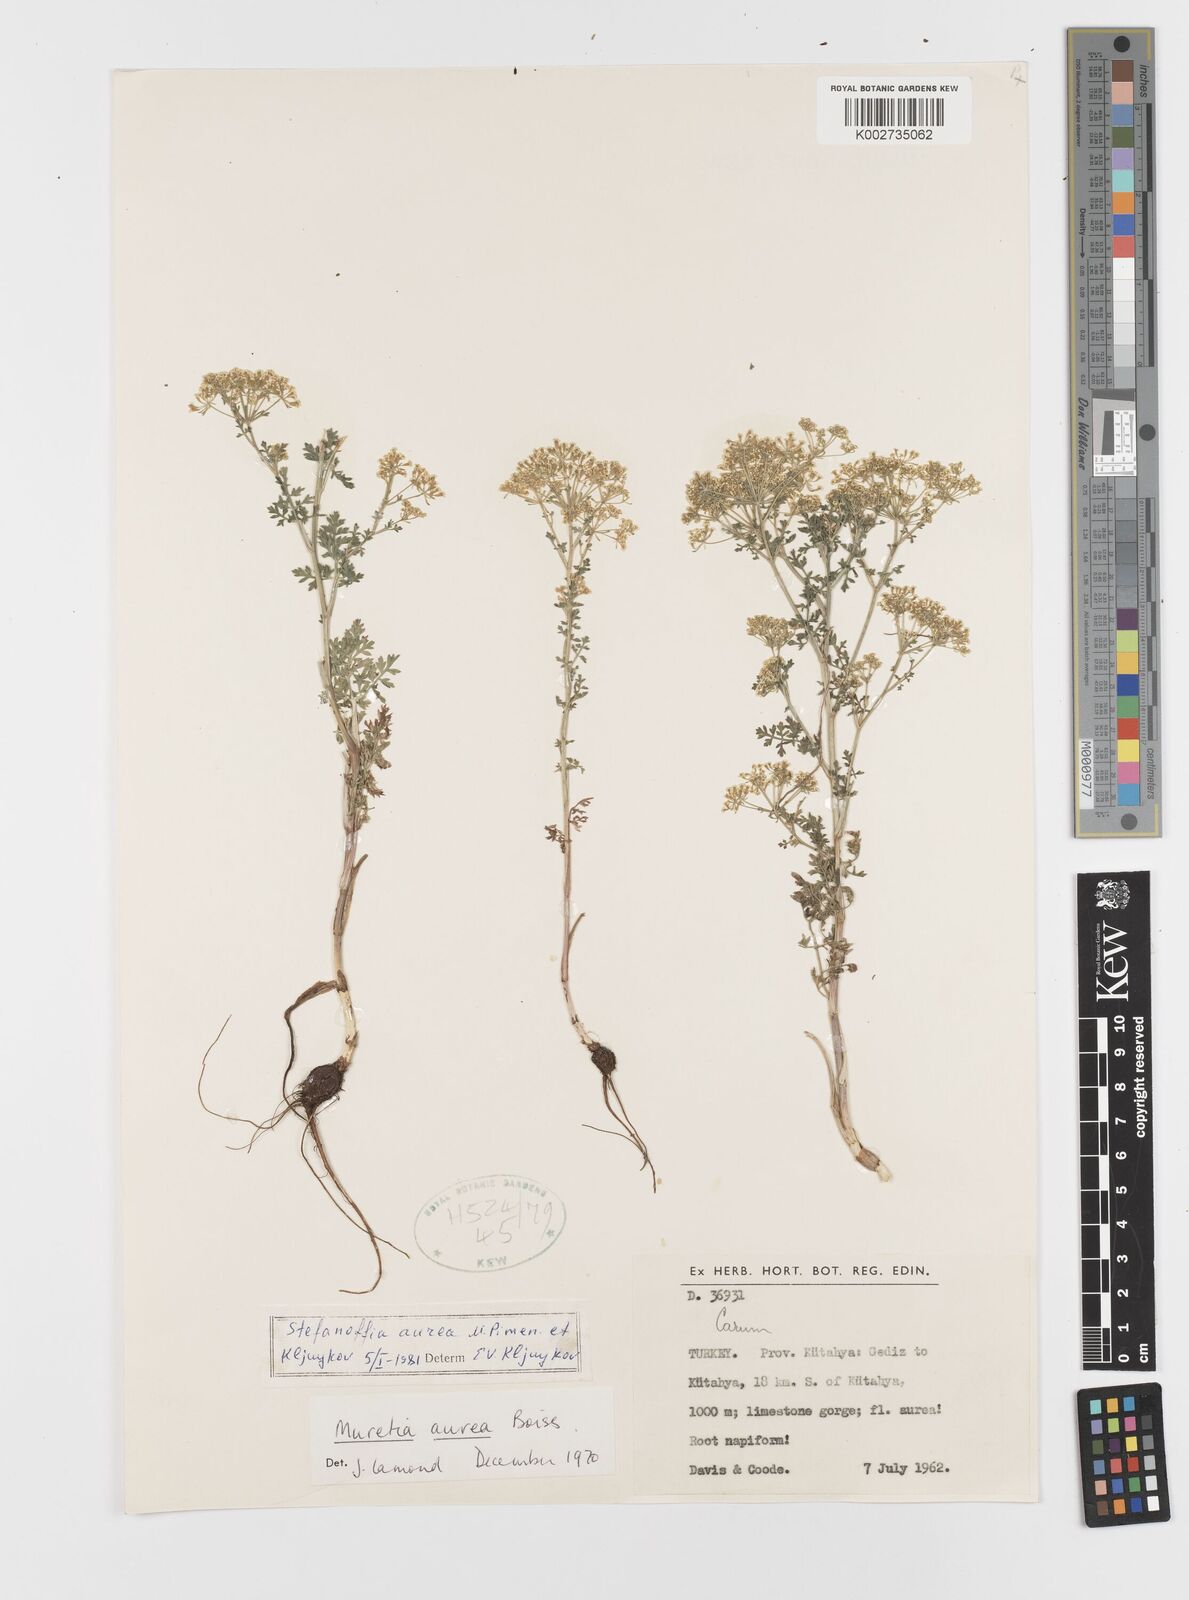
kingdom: Plantae
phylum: Tracheophyta
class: Magnoliopsida
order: Apiales
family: Apiaceae
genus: Elaeosticta
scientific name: Elaeosticta aurea
